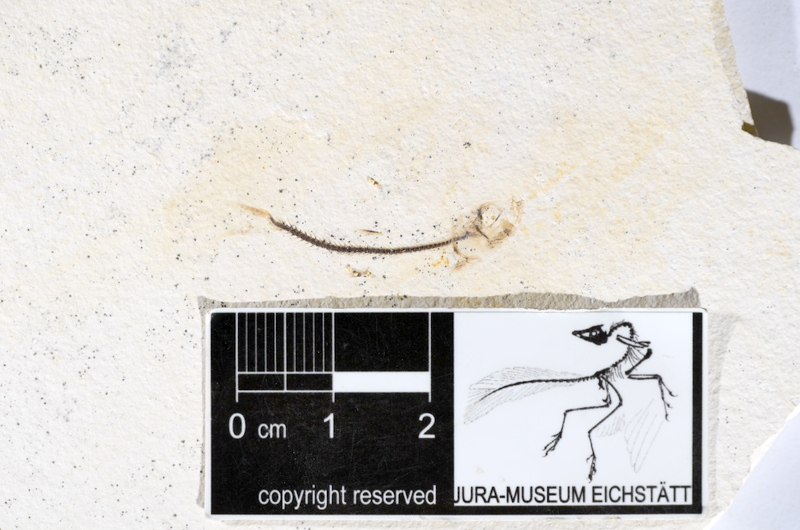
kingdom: Animalia
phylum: Chordata
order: Salmoniformes
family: Orthogonikleithridae
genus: Orthogonikleithrus
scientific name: Orthogonikleithrus hoelli
